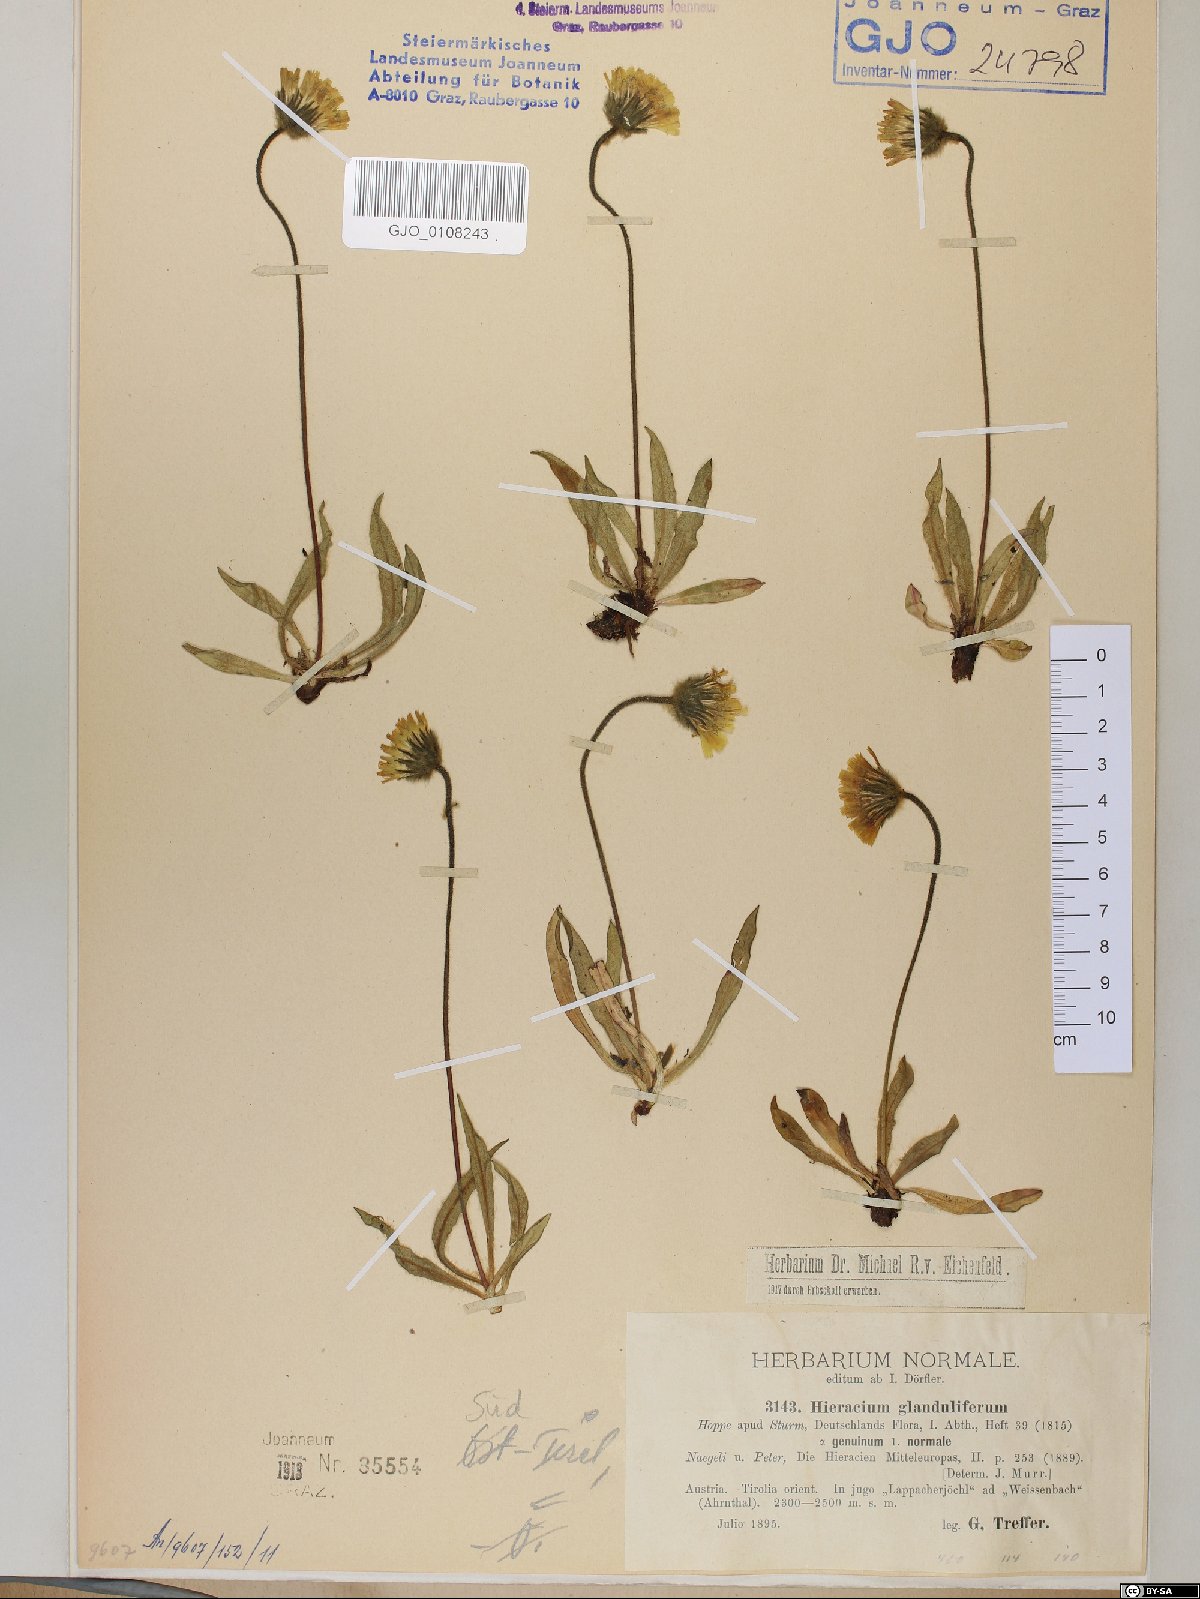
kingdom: Plantae
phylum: Tracheophyta
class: Magnoliopsida
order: Asterales
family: Asteraceae
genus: Hieracium
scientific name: Hieracium piliferum
